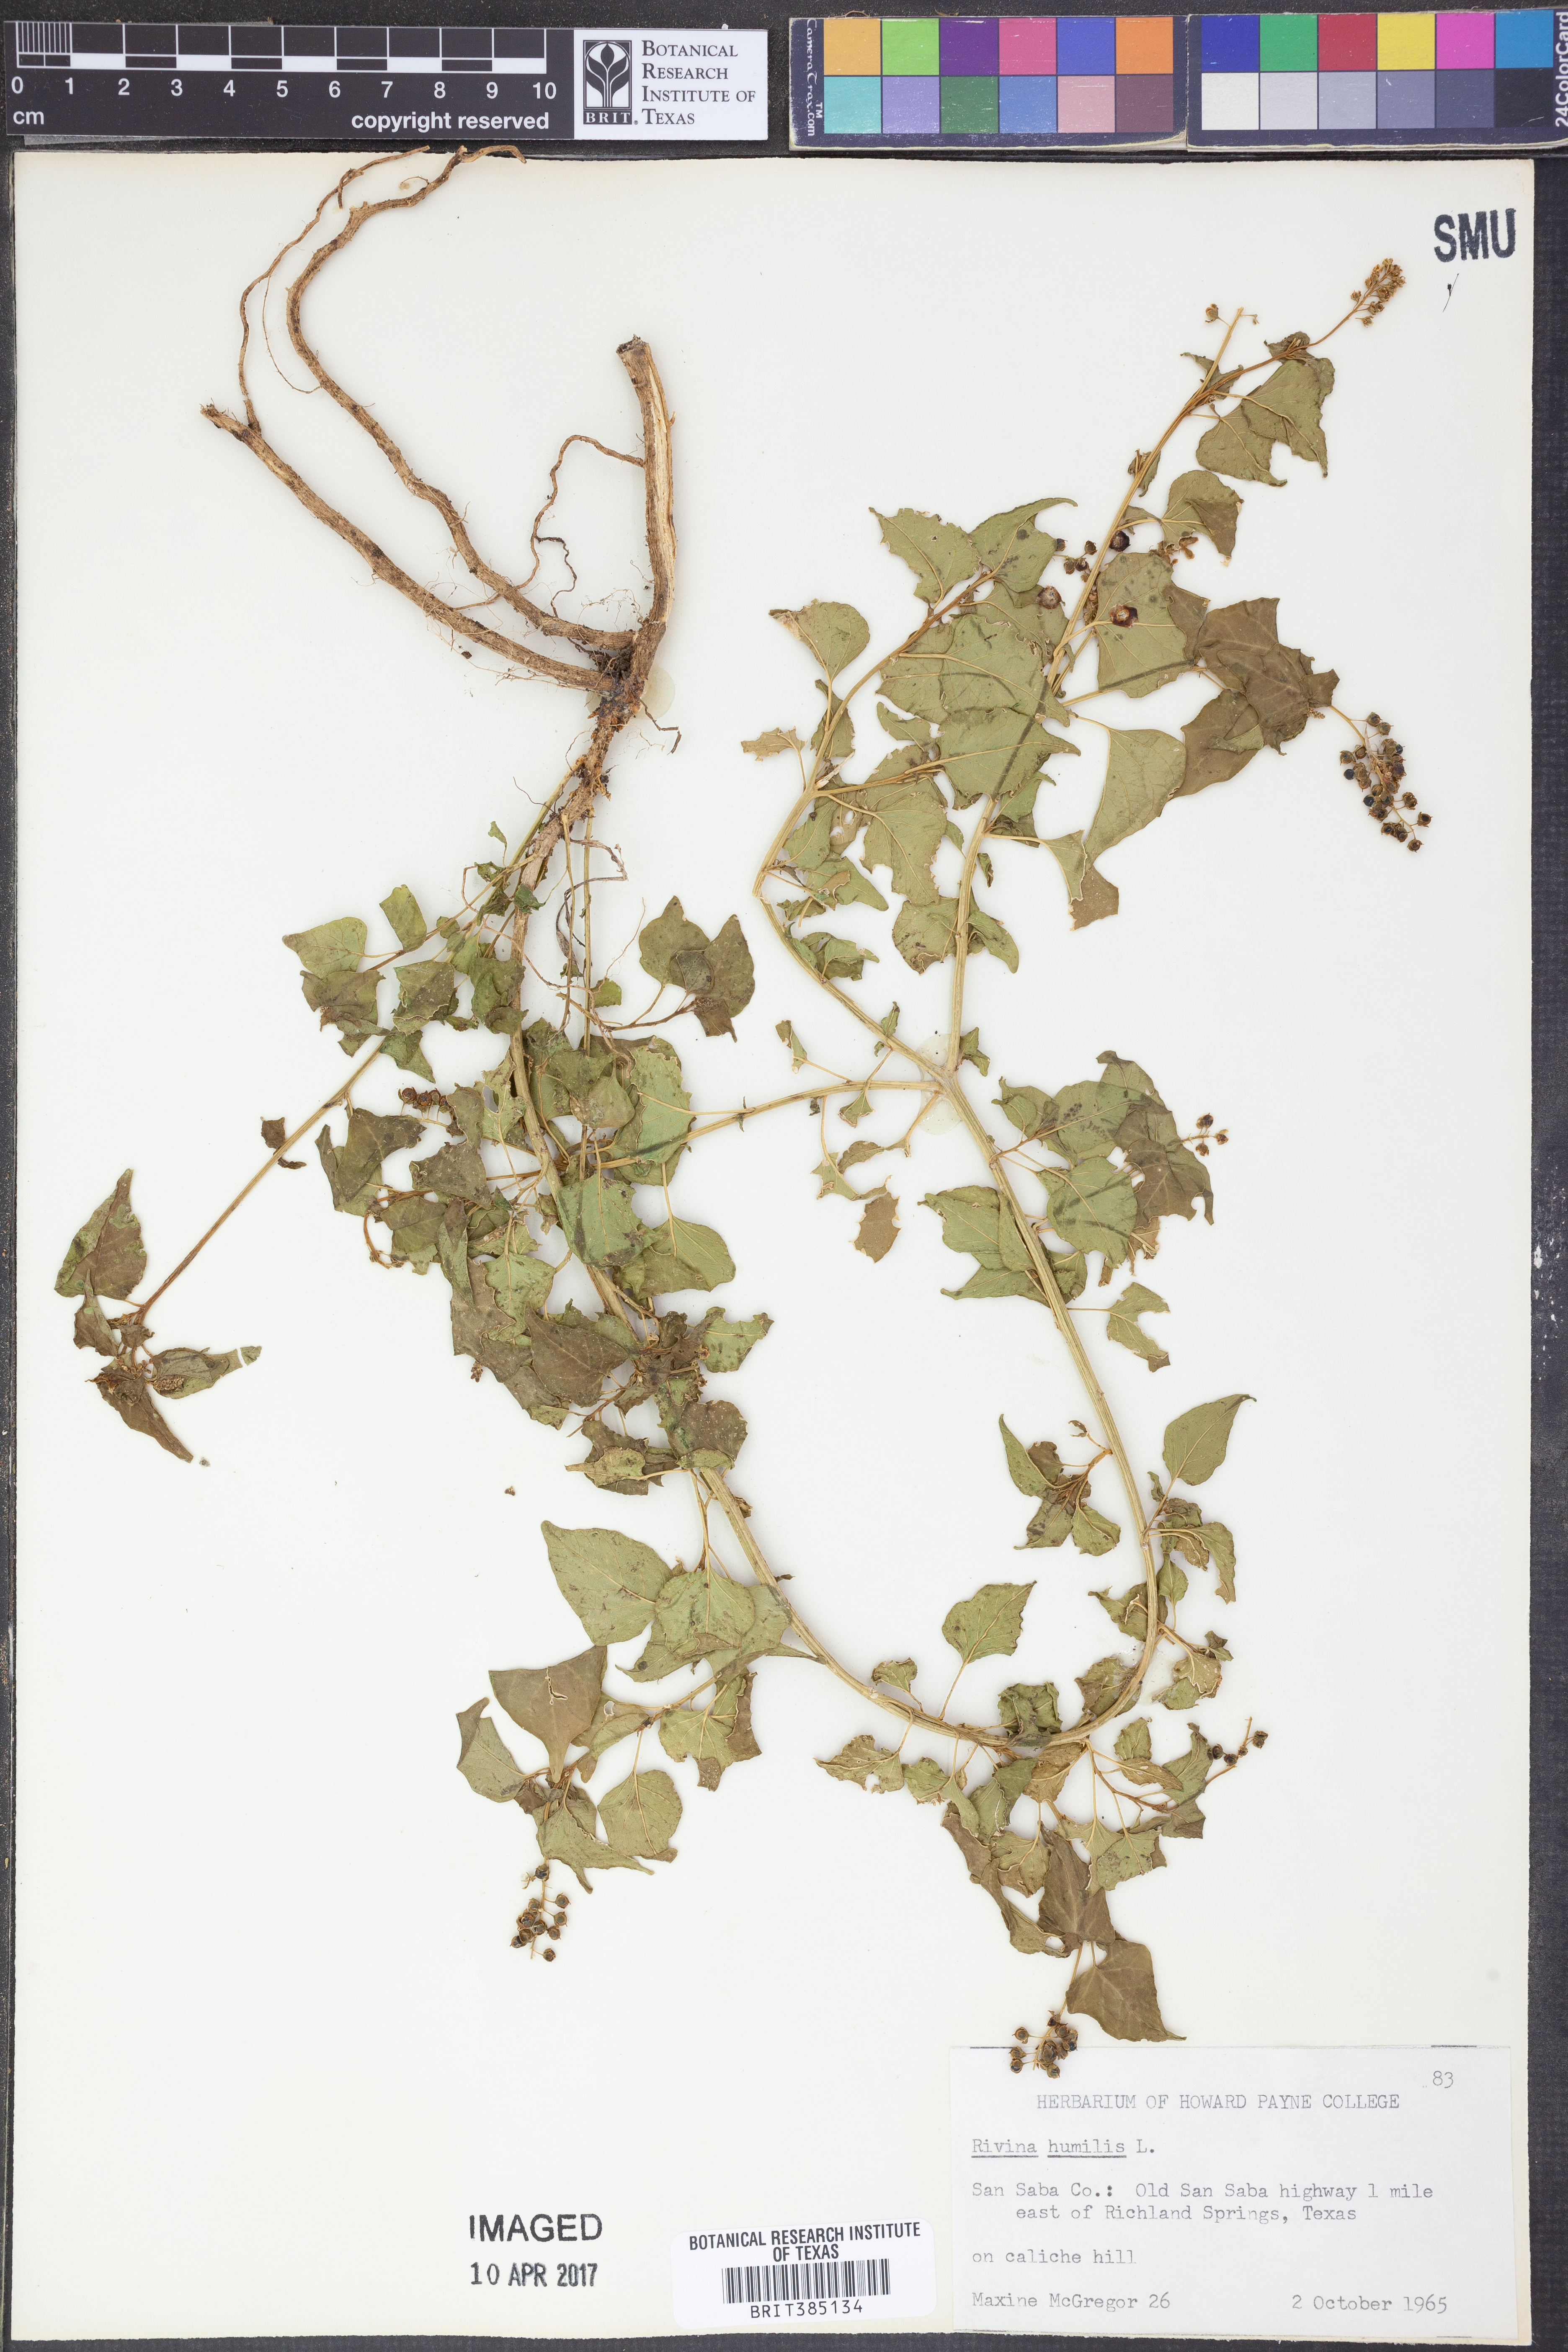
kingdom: Plantae
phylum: Tracheophyta
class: Magnoliopsida
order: Caryophyllales
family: Phytolaccaceae
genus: Rivina
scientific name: Rivina humilis
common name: Rougeplant
